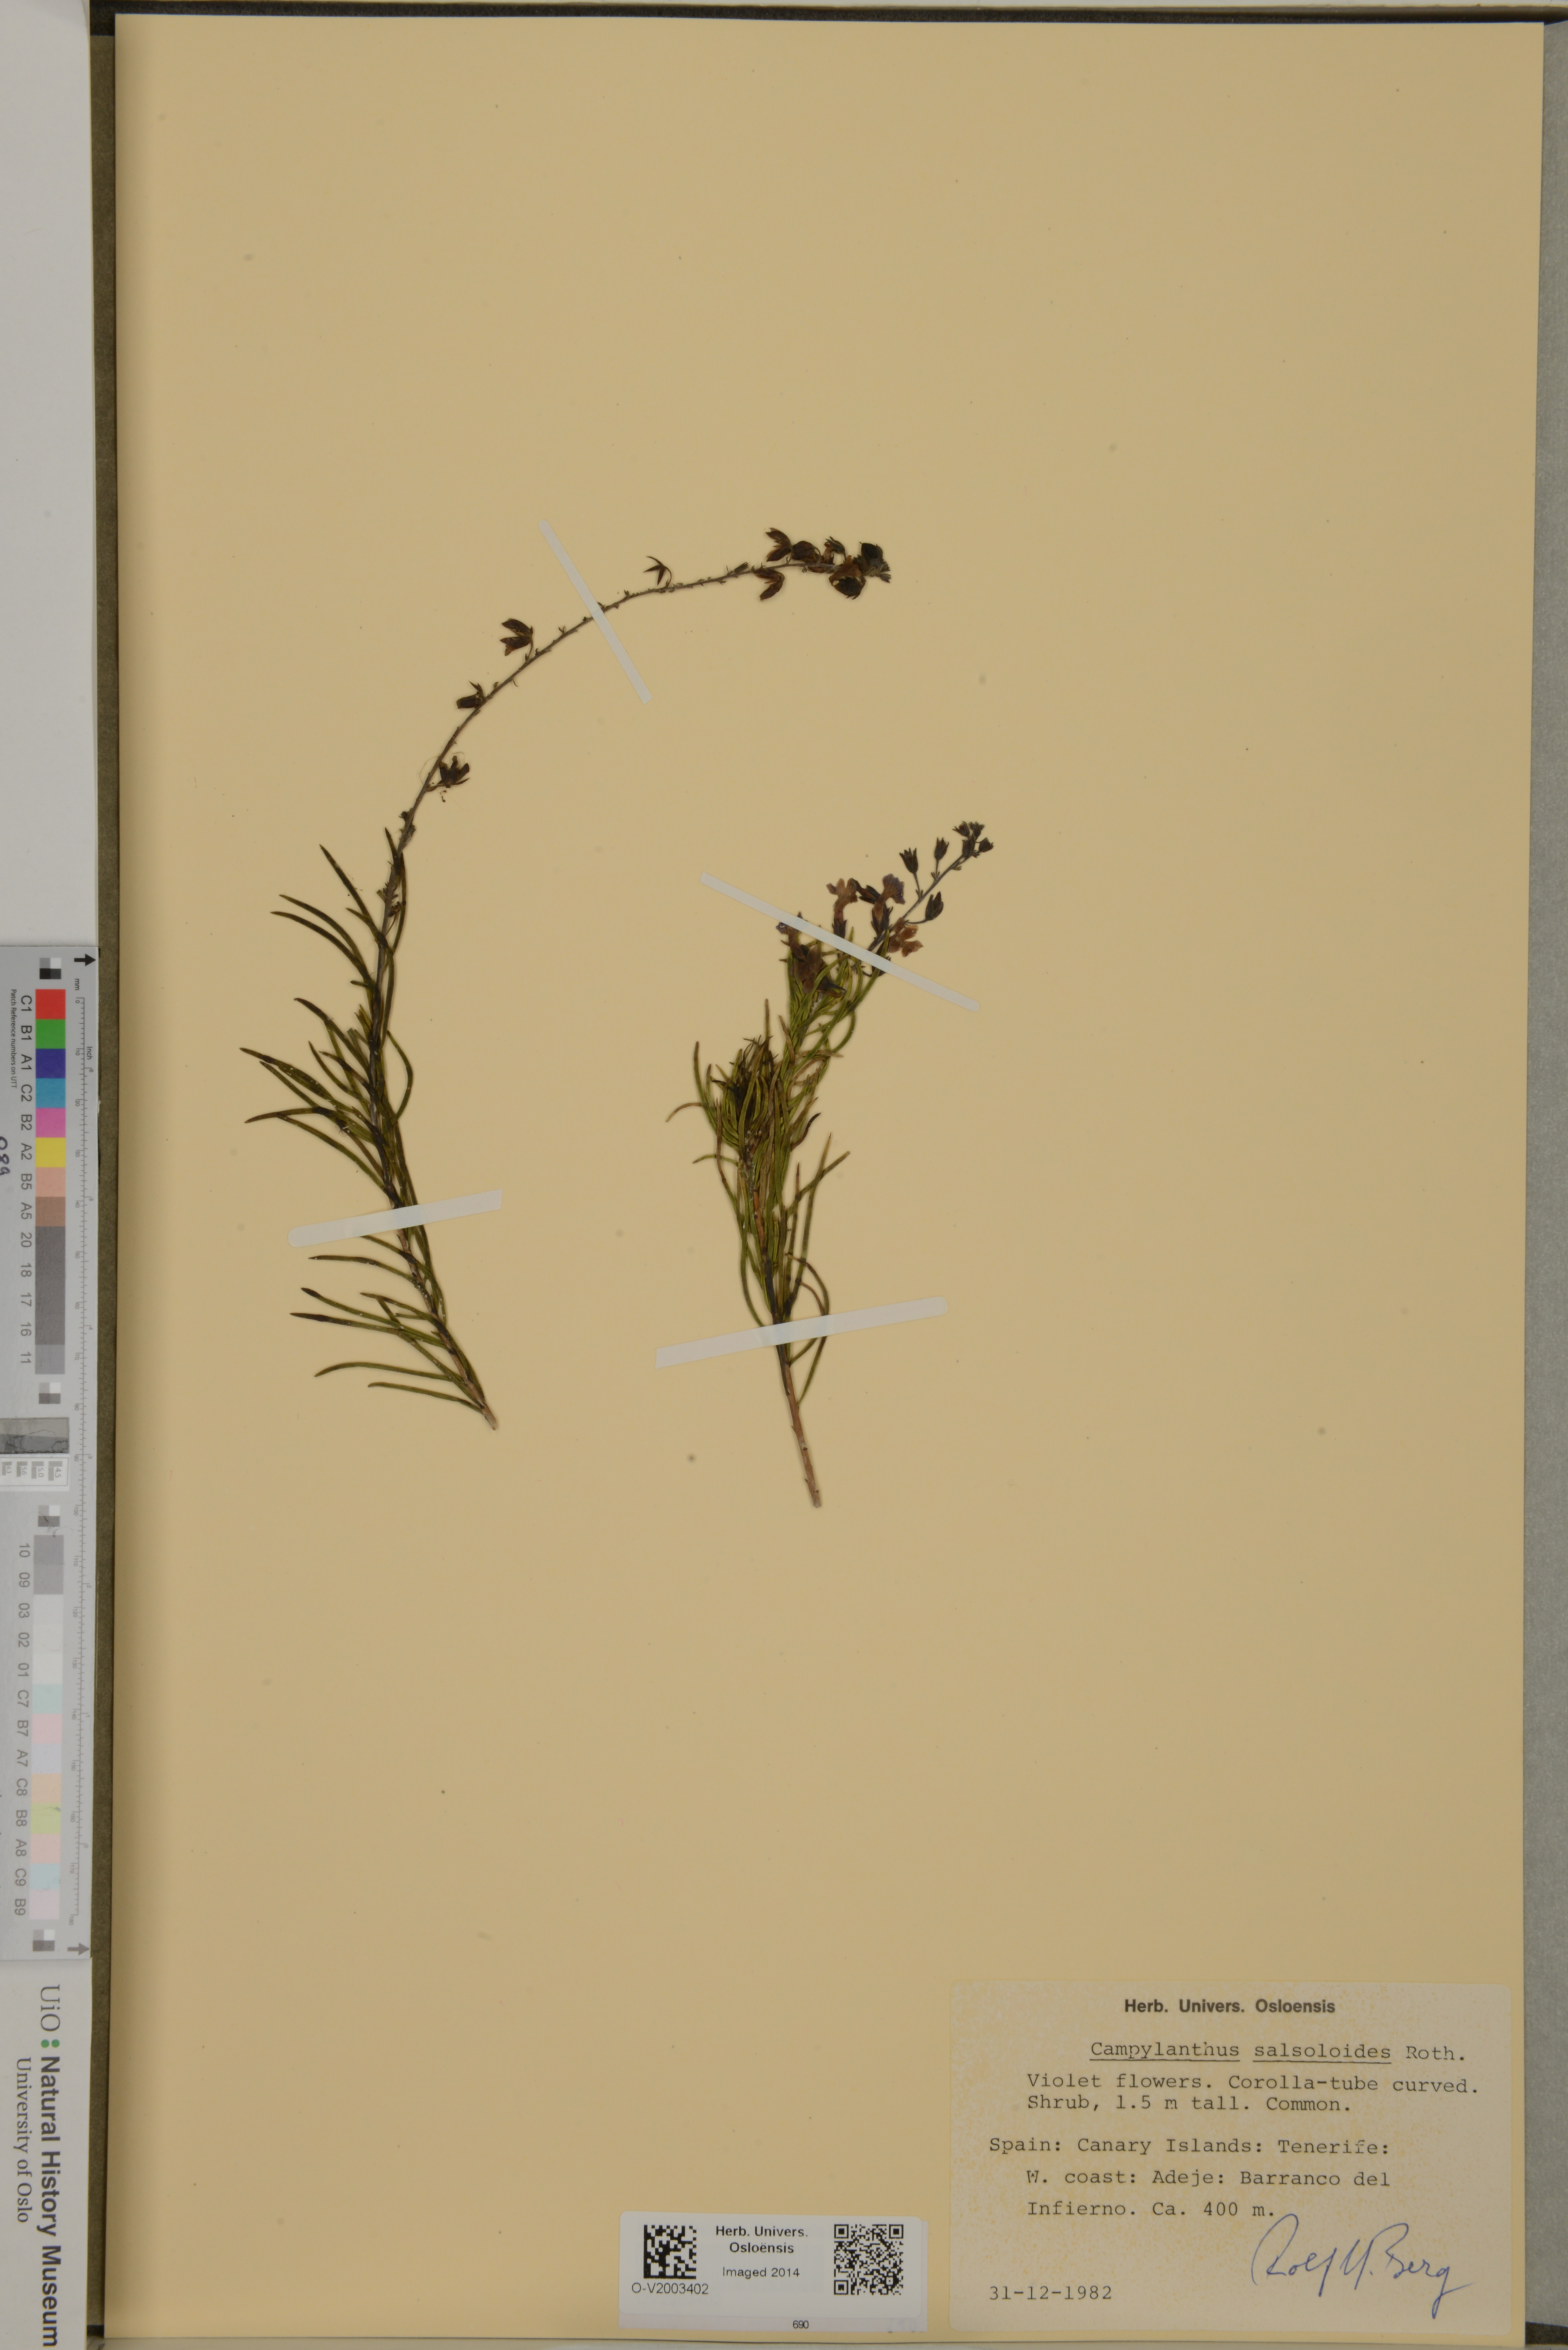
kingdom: Plantae
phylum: Tracheophyta
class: Magnoliopsida
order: Lamiales
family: Plantaginaceae
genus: Campylanthus
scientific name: Campylanthus salsoloides
